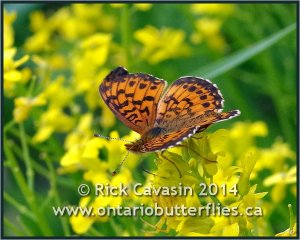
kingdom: Animalia
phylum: Arthropoda
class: Insecta
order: Lepidoptera
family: Nymphalidae
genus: Boloria
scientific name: Boloria selene
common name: Silver-bordered Fritillary
